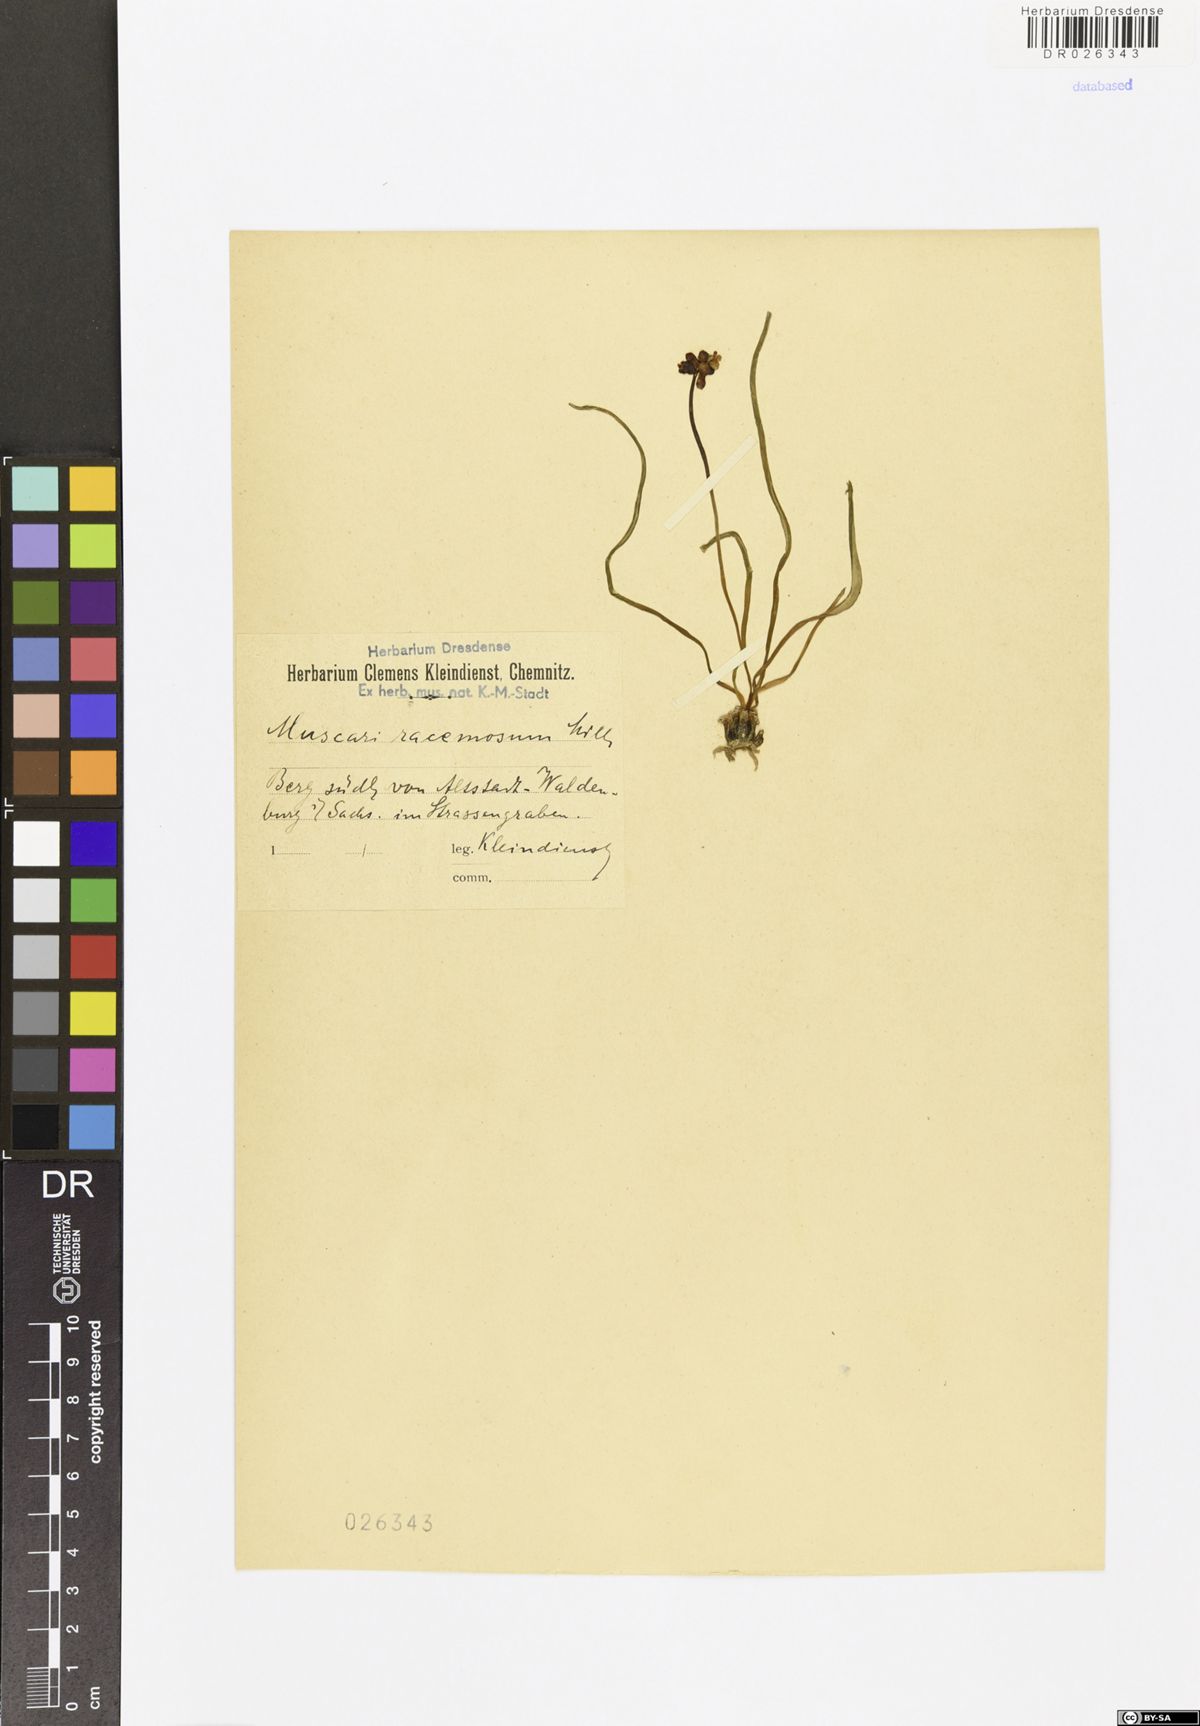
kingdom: Plantae
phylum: Tracheophyta
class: Liliopsida
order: Asparagales
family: Asparagaceae
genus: Muscari
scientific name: Muscari neglectum
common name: Grape-hyacinth
